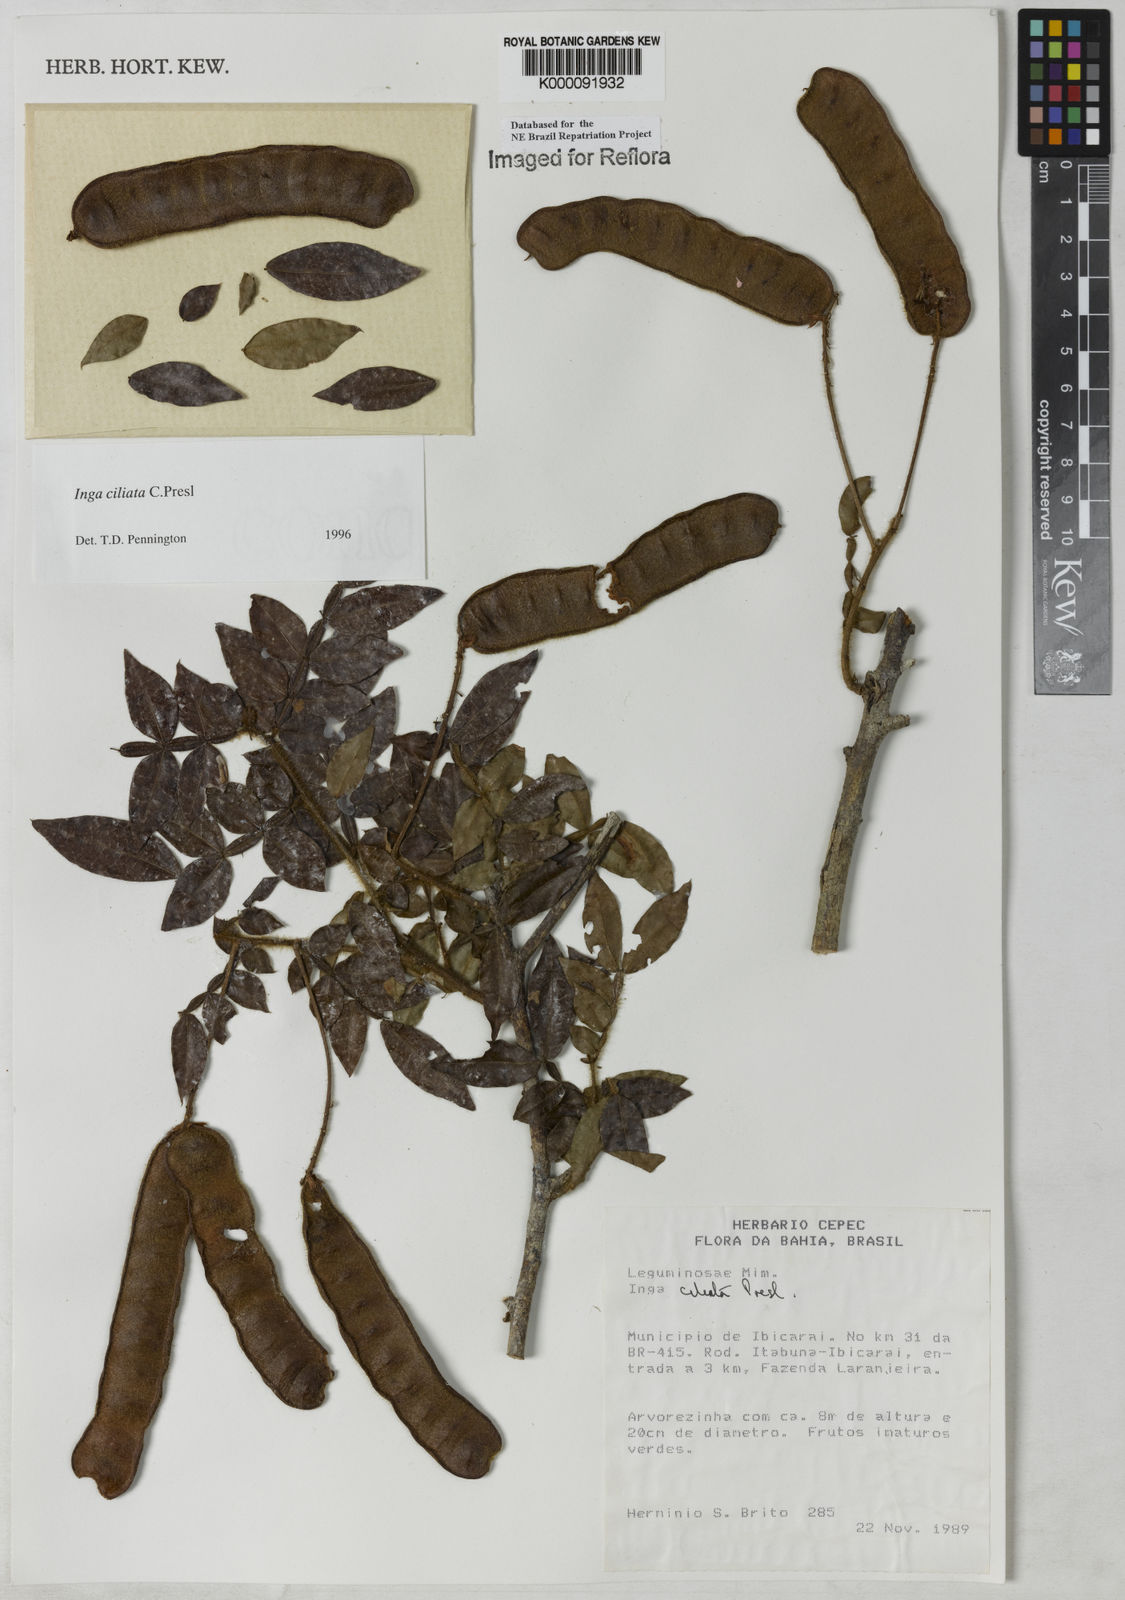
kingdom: Plantae
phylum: Tracheophyta
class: Magnoliopsida
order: Fabales
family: Fabaceae
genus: Inga
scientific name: Inga ciliata
